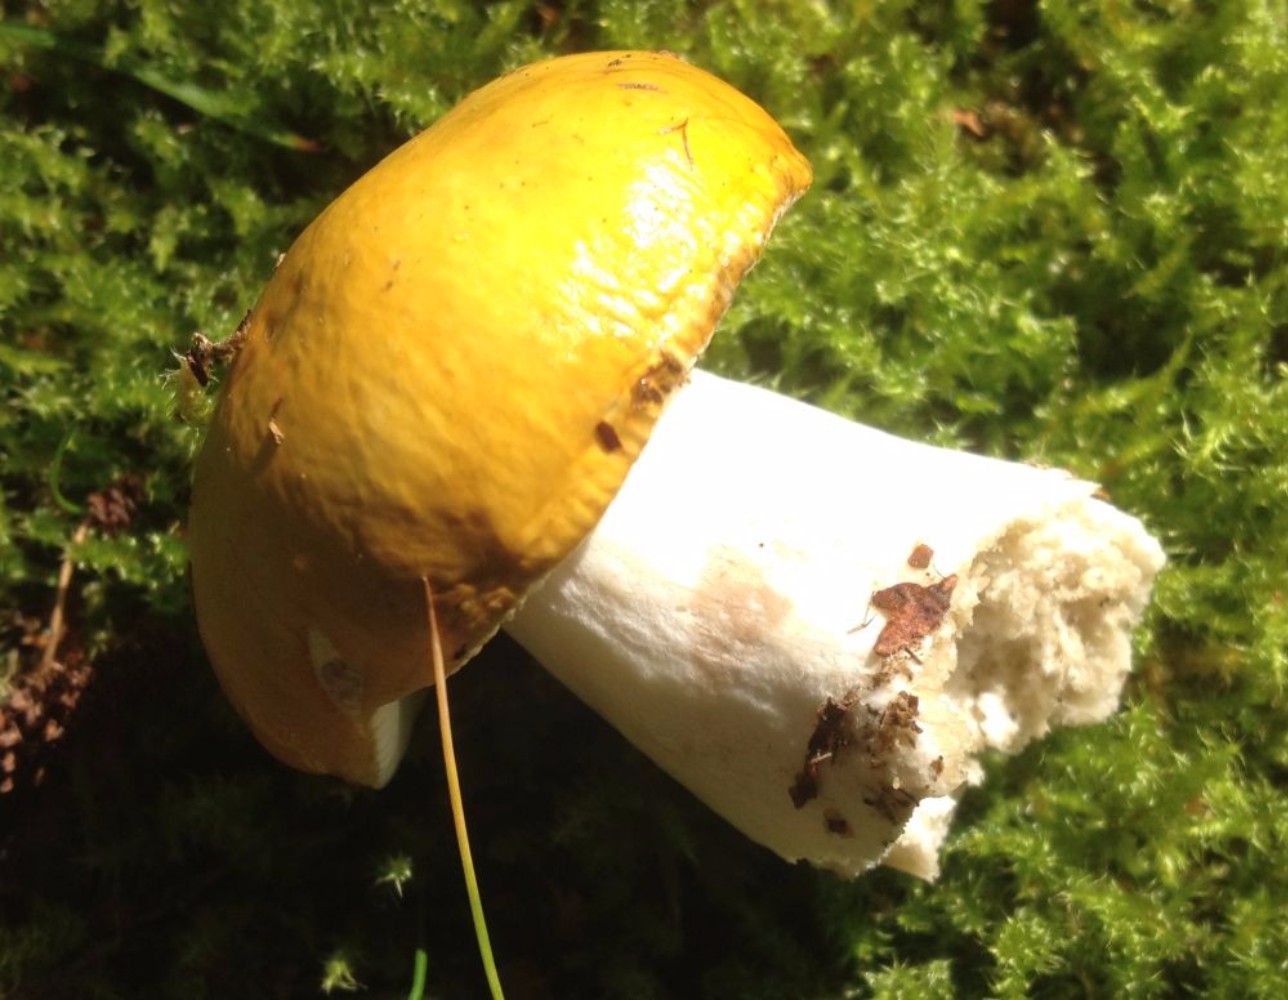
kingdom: Fungi
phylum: Basidiomycota
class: Agaricomycetes
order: Russulales
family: Russulaceae
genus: Russula
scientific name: Russula claroflava
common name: birke-skørhat
